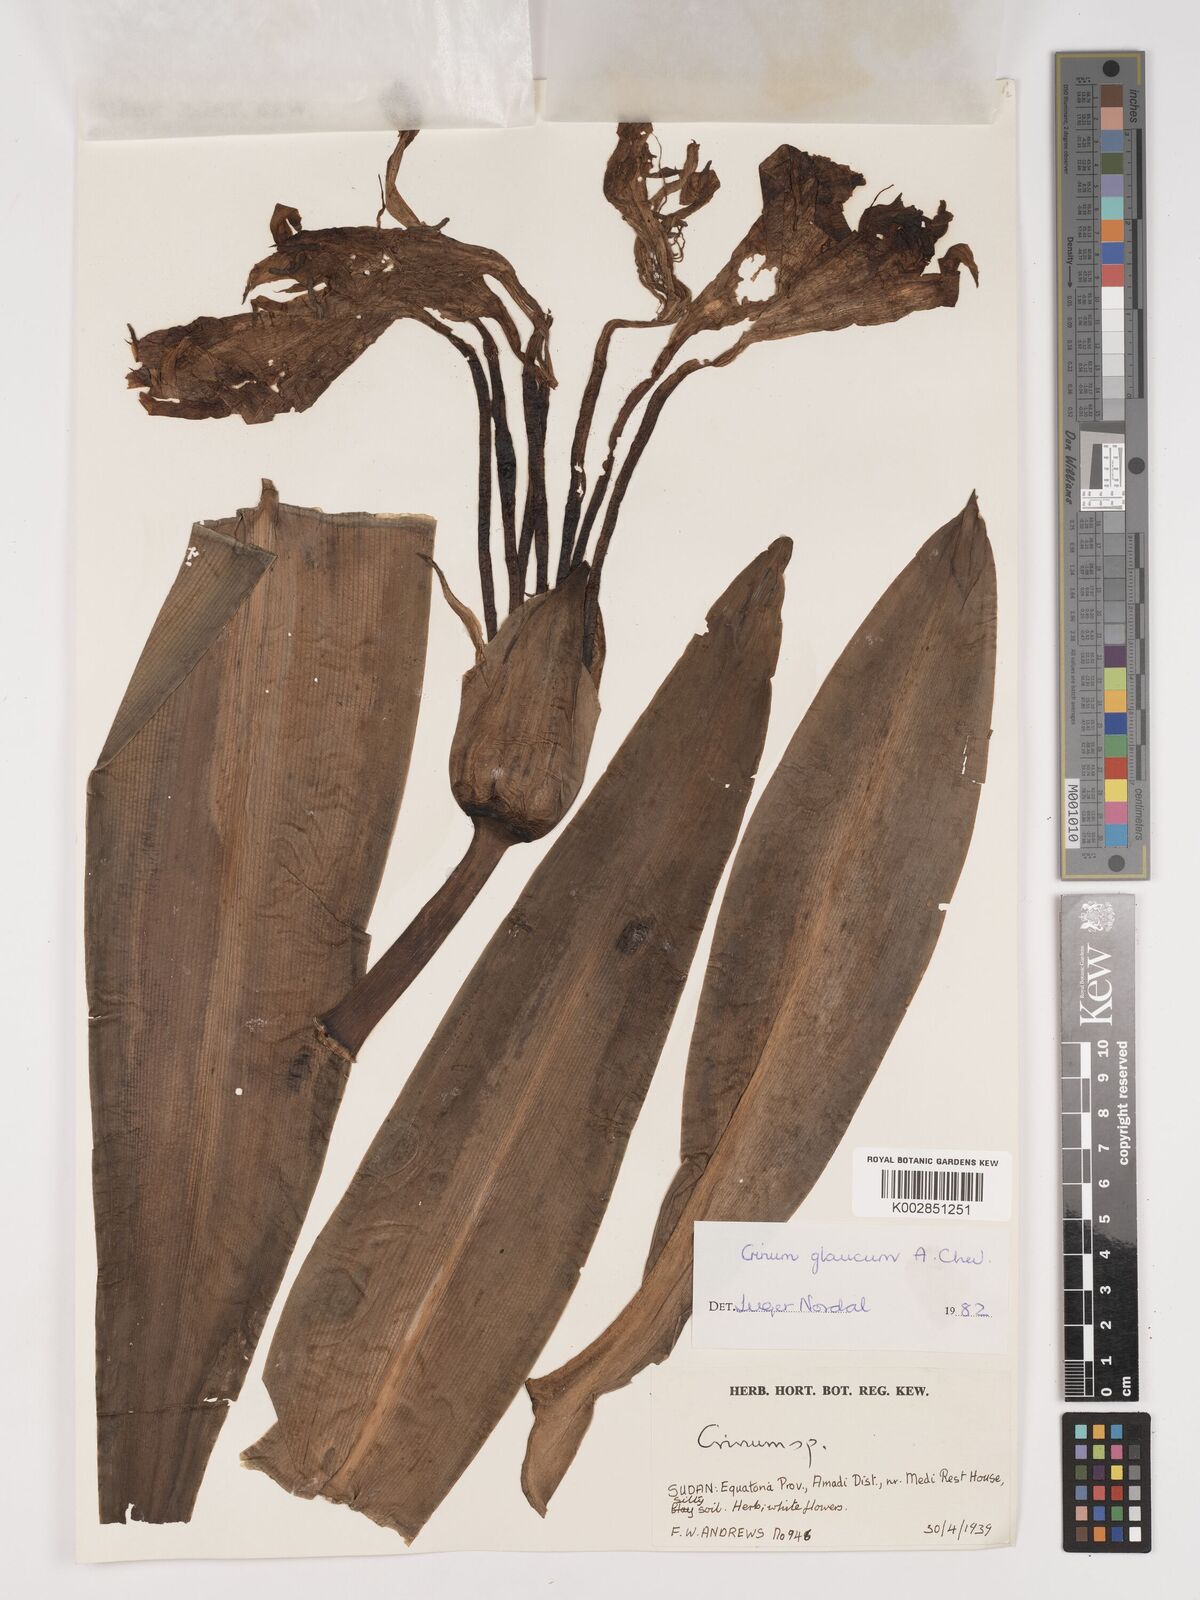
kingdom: Plantae
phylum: Tracheophyta
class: Liliopsida
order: Asparagales
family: Amaryllidaceae
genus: Crinum
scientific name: Crinum glaucum
